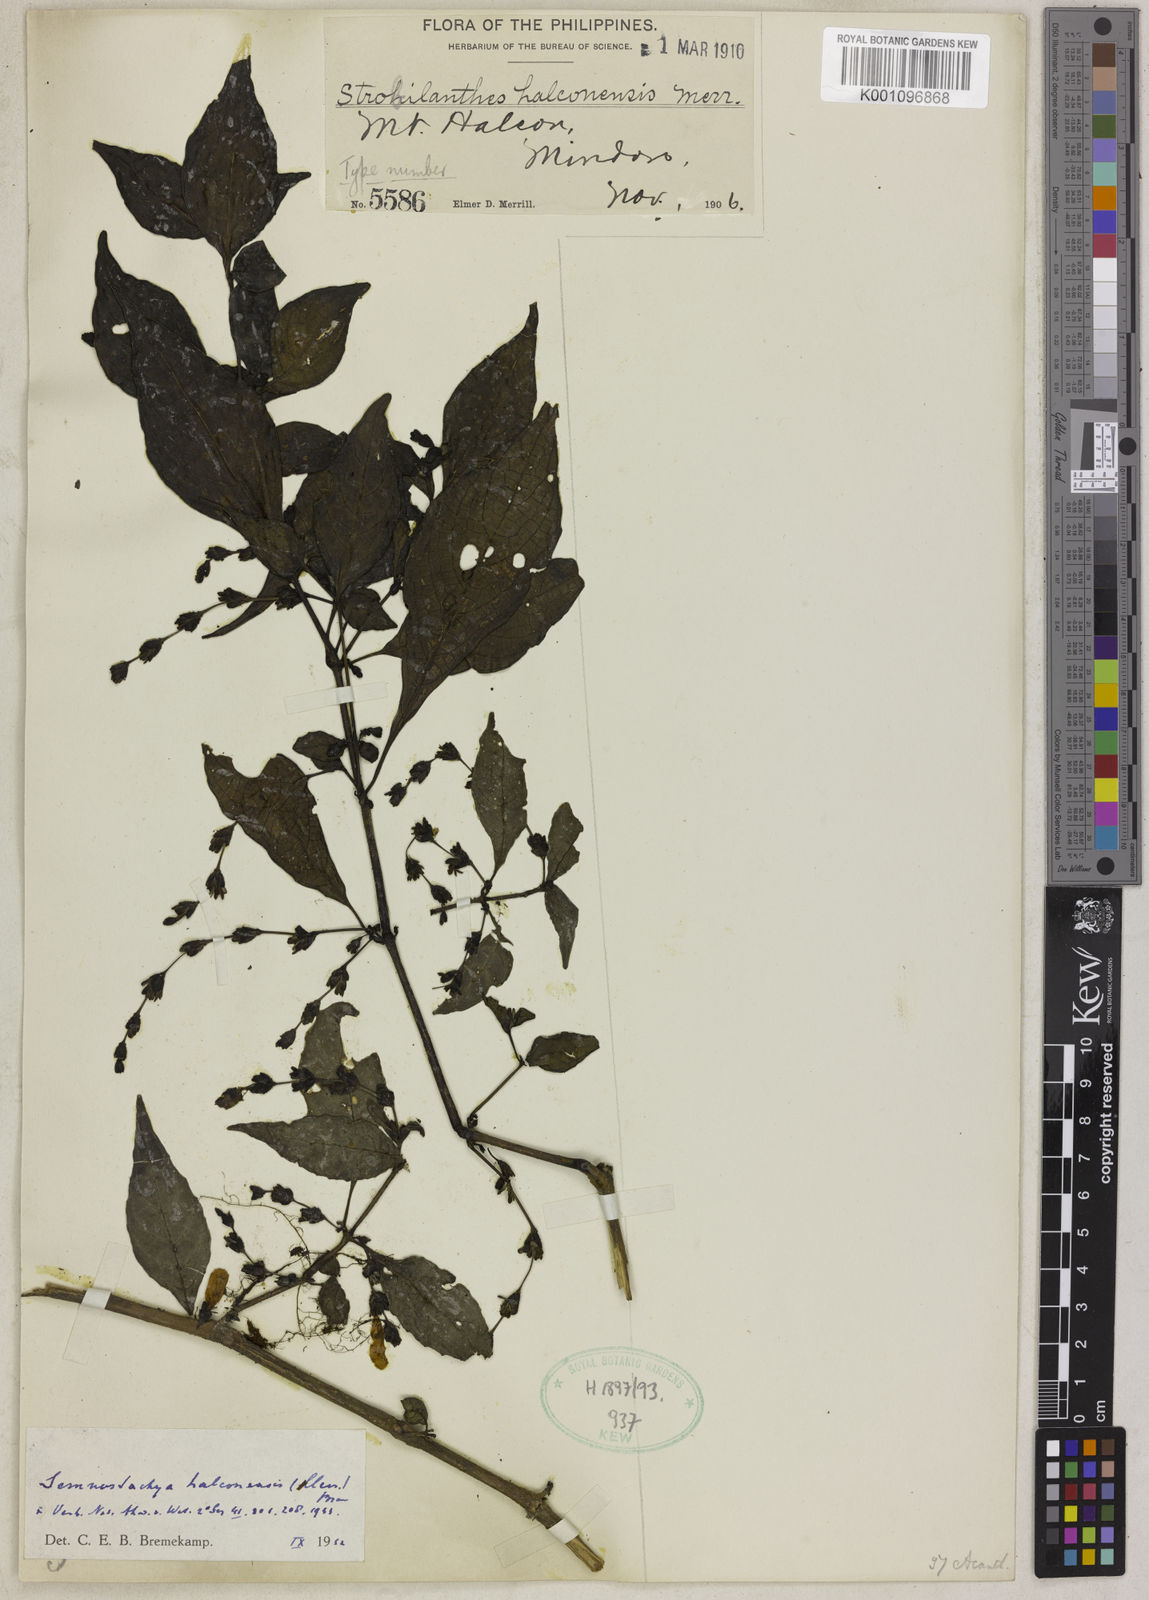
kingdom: Plantae
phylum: Tracheophyta
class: Magnoliopsida
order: Lamiales
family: Acanthaceae
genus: Strobilanthes
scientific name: Strobilanthes halconensis
